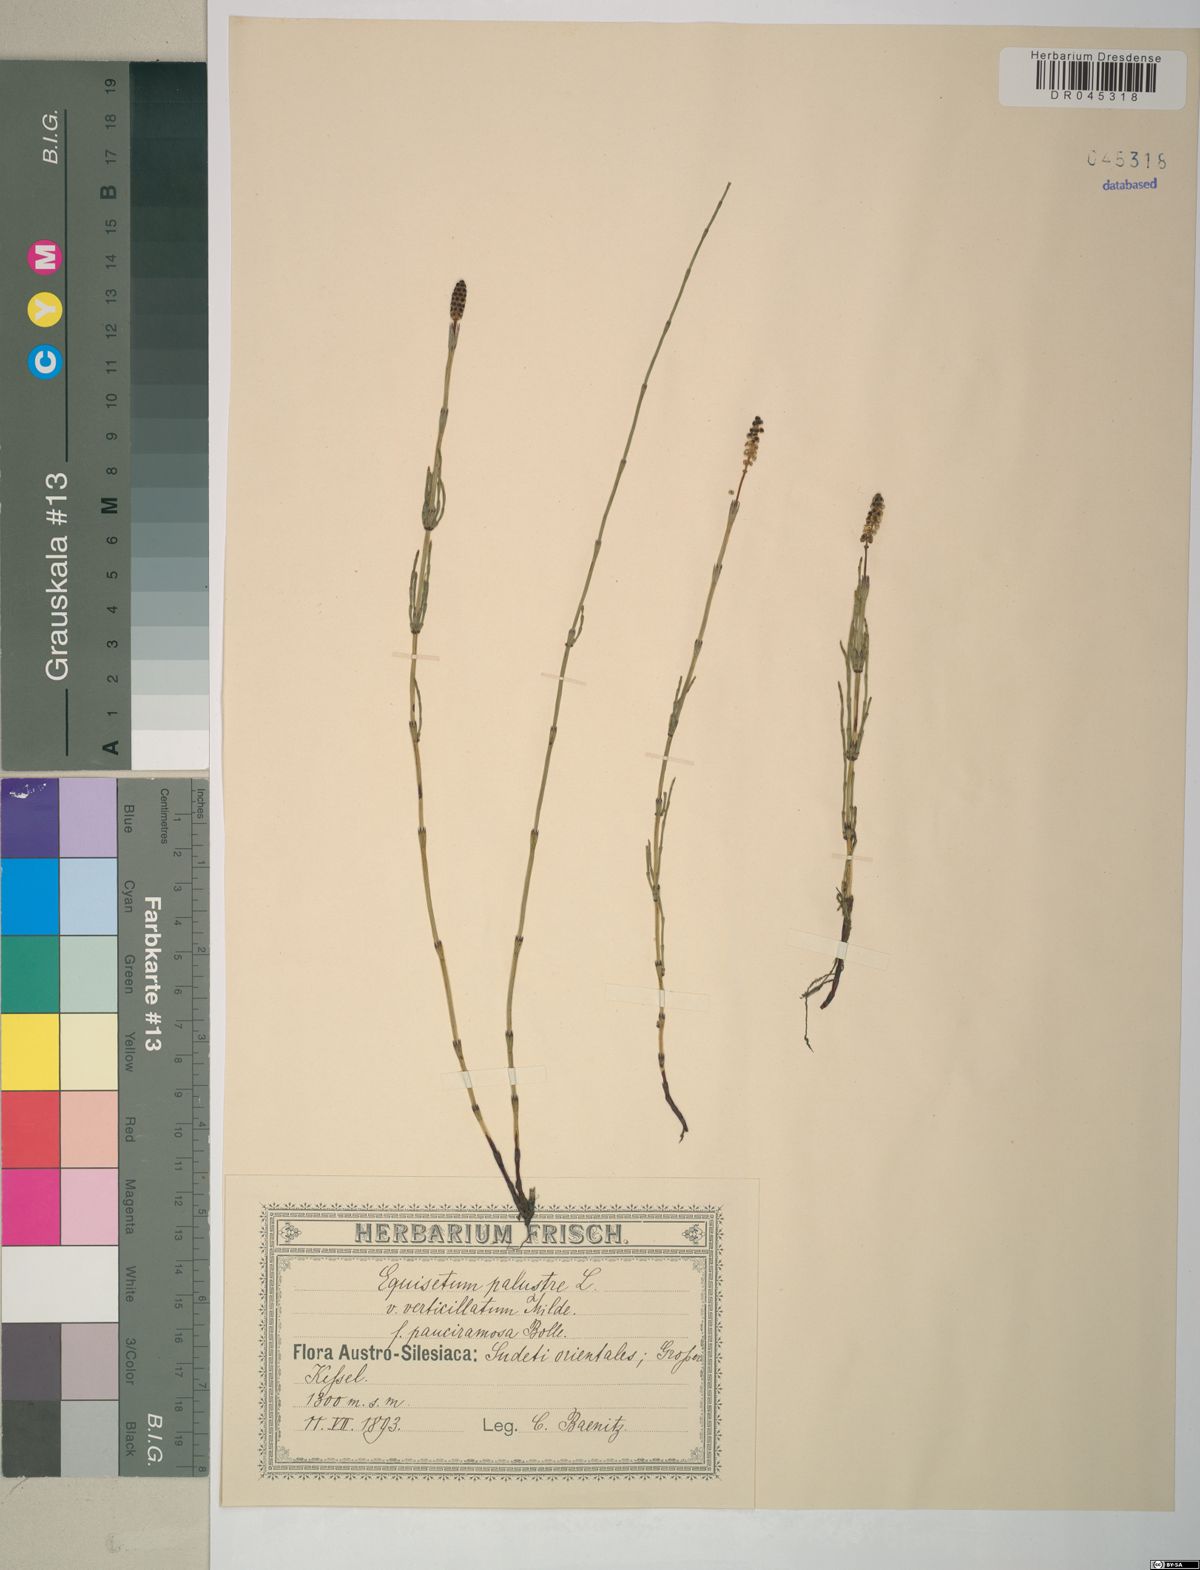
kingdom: Plantae
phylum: Tracheophyta
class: Polypodiopsida
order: Equisetales
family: Equisetaceae
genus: Equisetum
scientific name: Equisetum palustre
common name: Marsh horsetail
